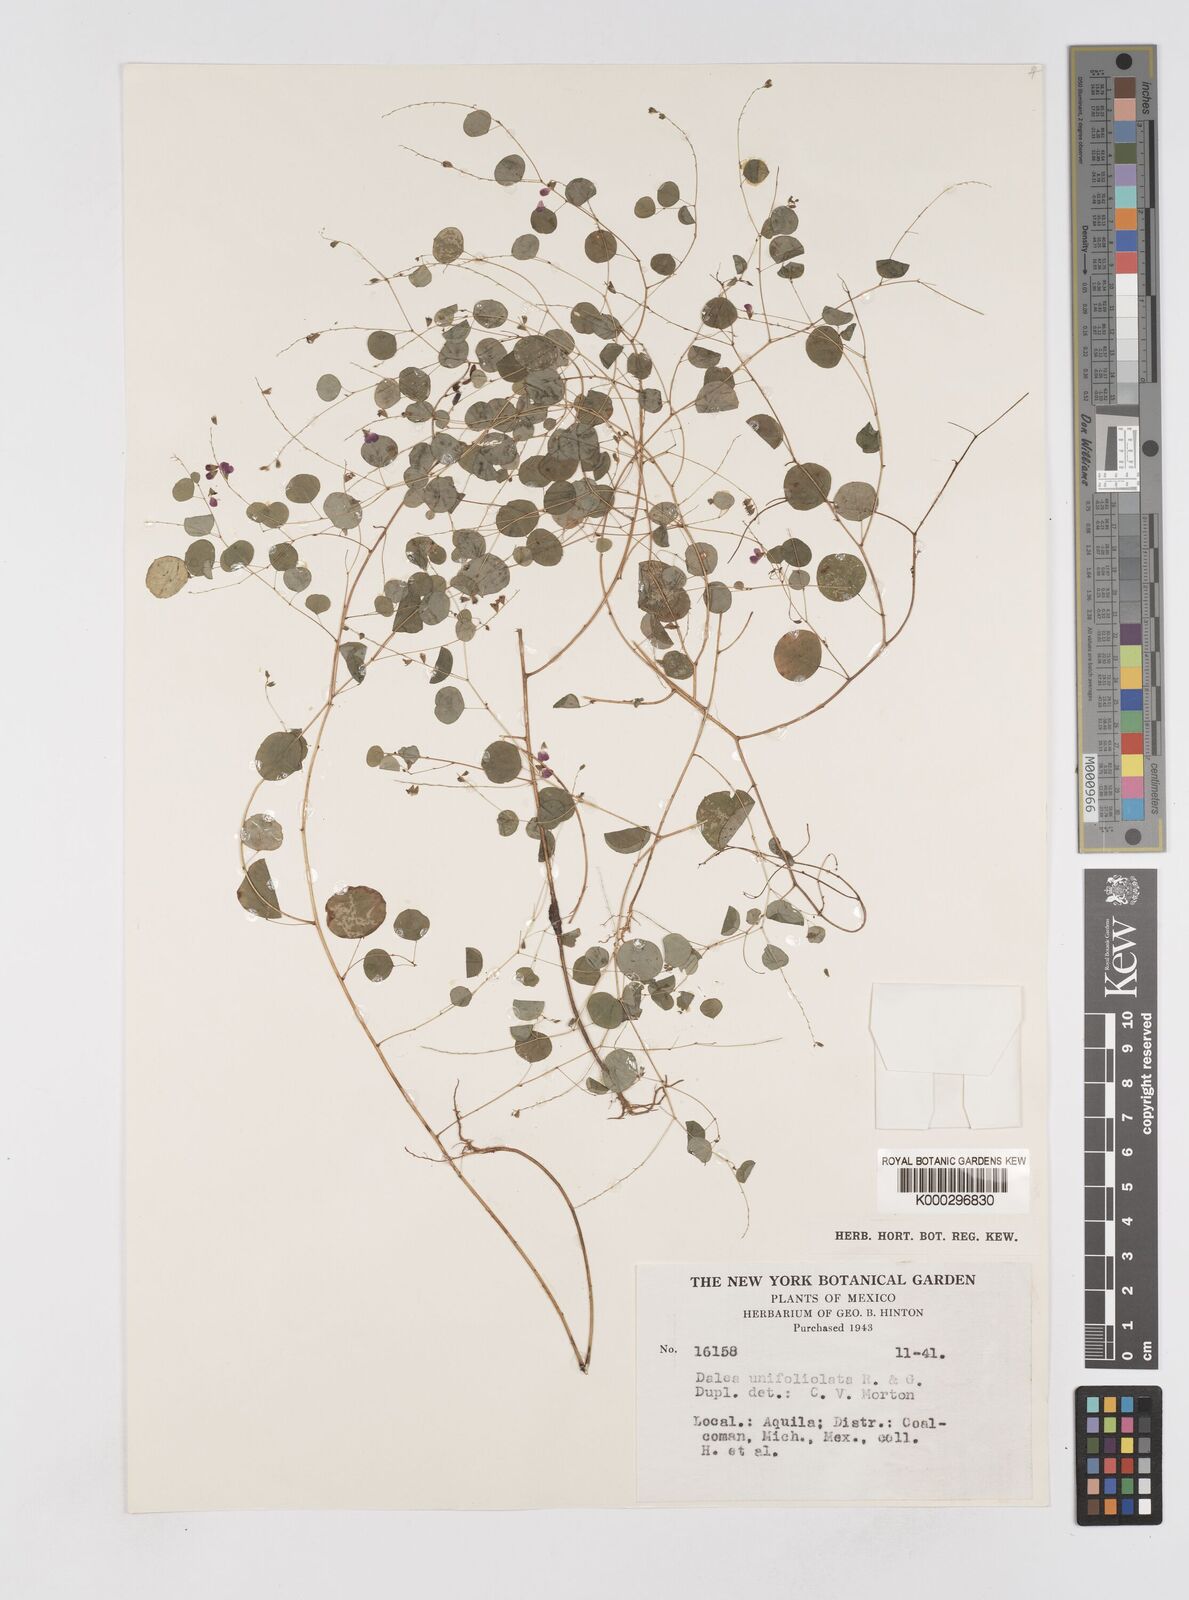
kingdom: Plantae
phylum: Tracheophyta
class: Magnoliopsida
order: Fabales
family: Fabaceae
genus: Marina
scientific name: Marina
